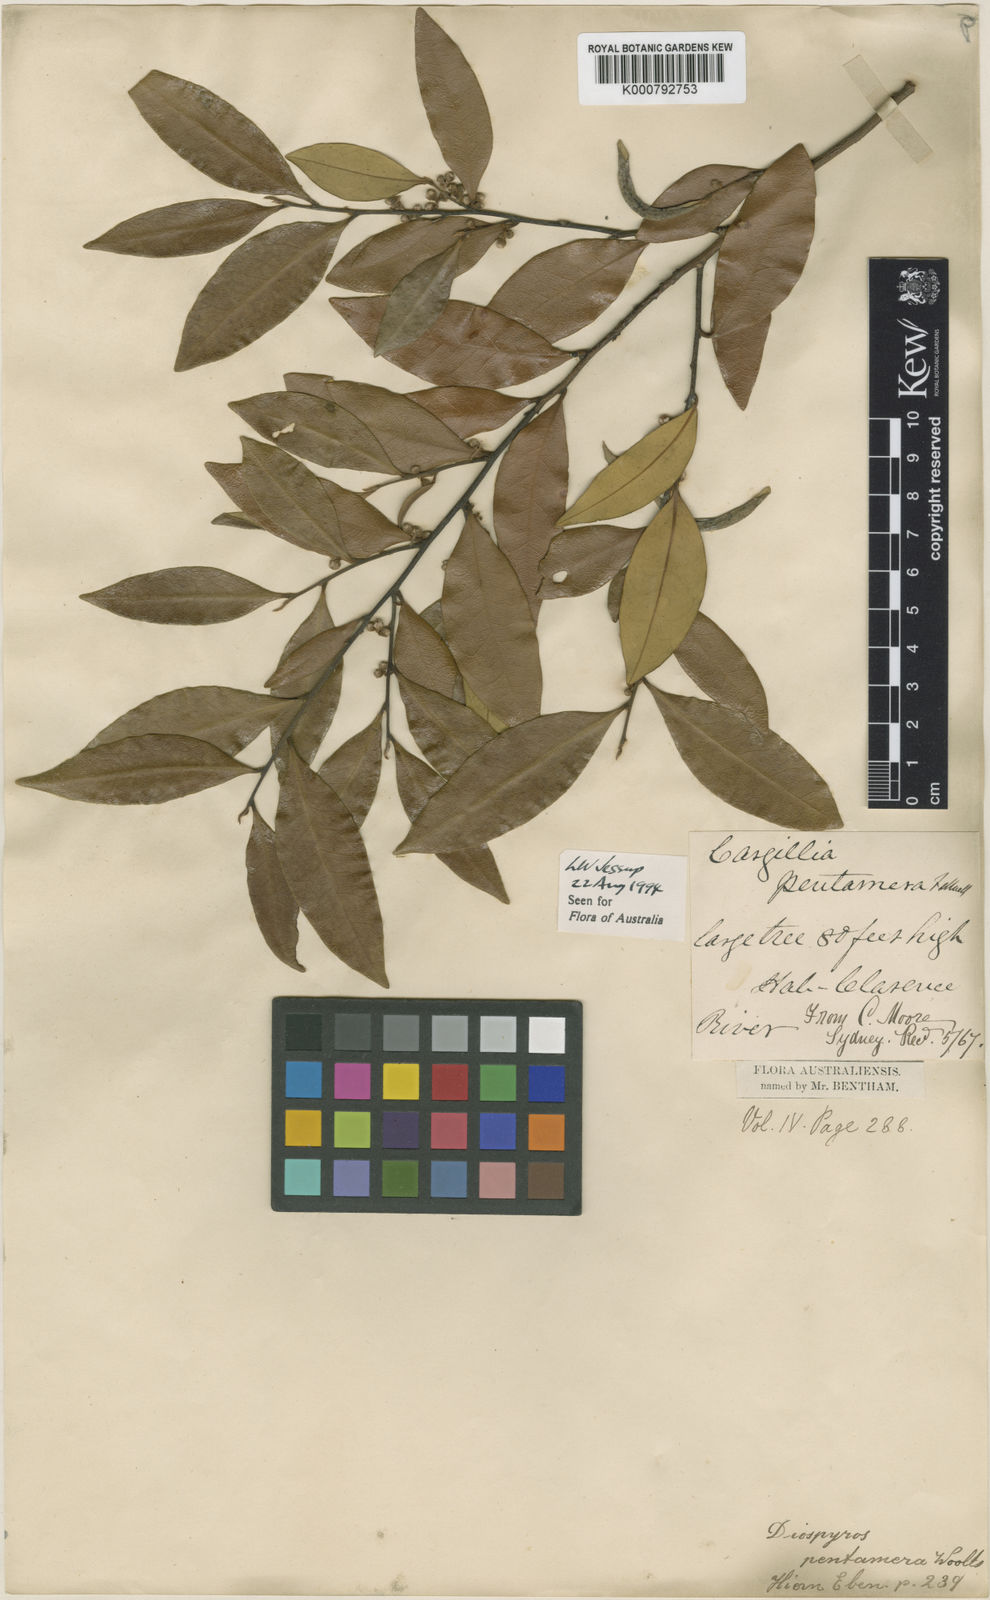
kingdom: Plantae
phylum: Tracheophyta
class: Magnoliopsida
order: Ericales
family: Ebenaceae
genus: Diospyros
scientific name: Diospyros pentamera
